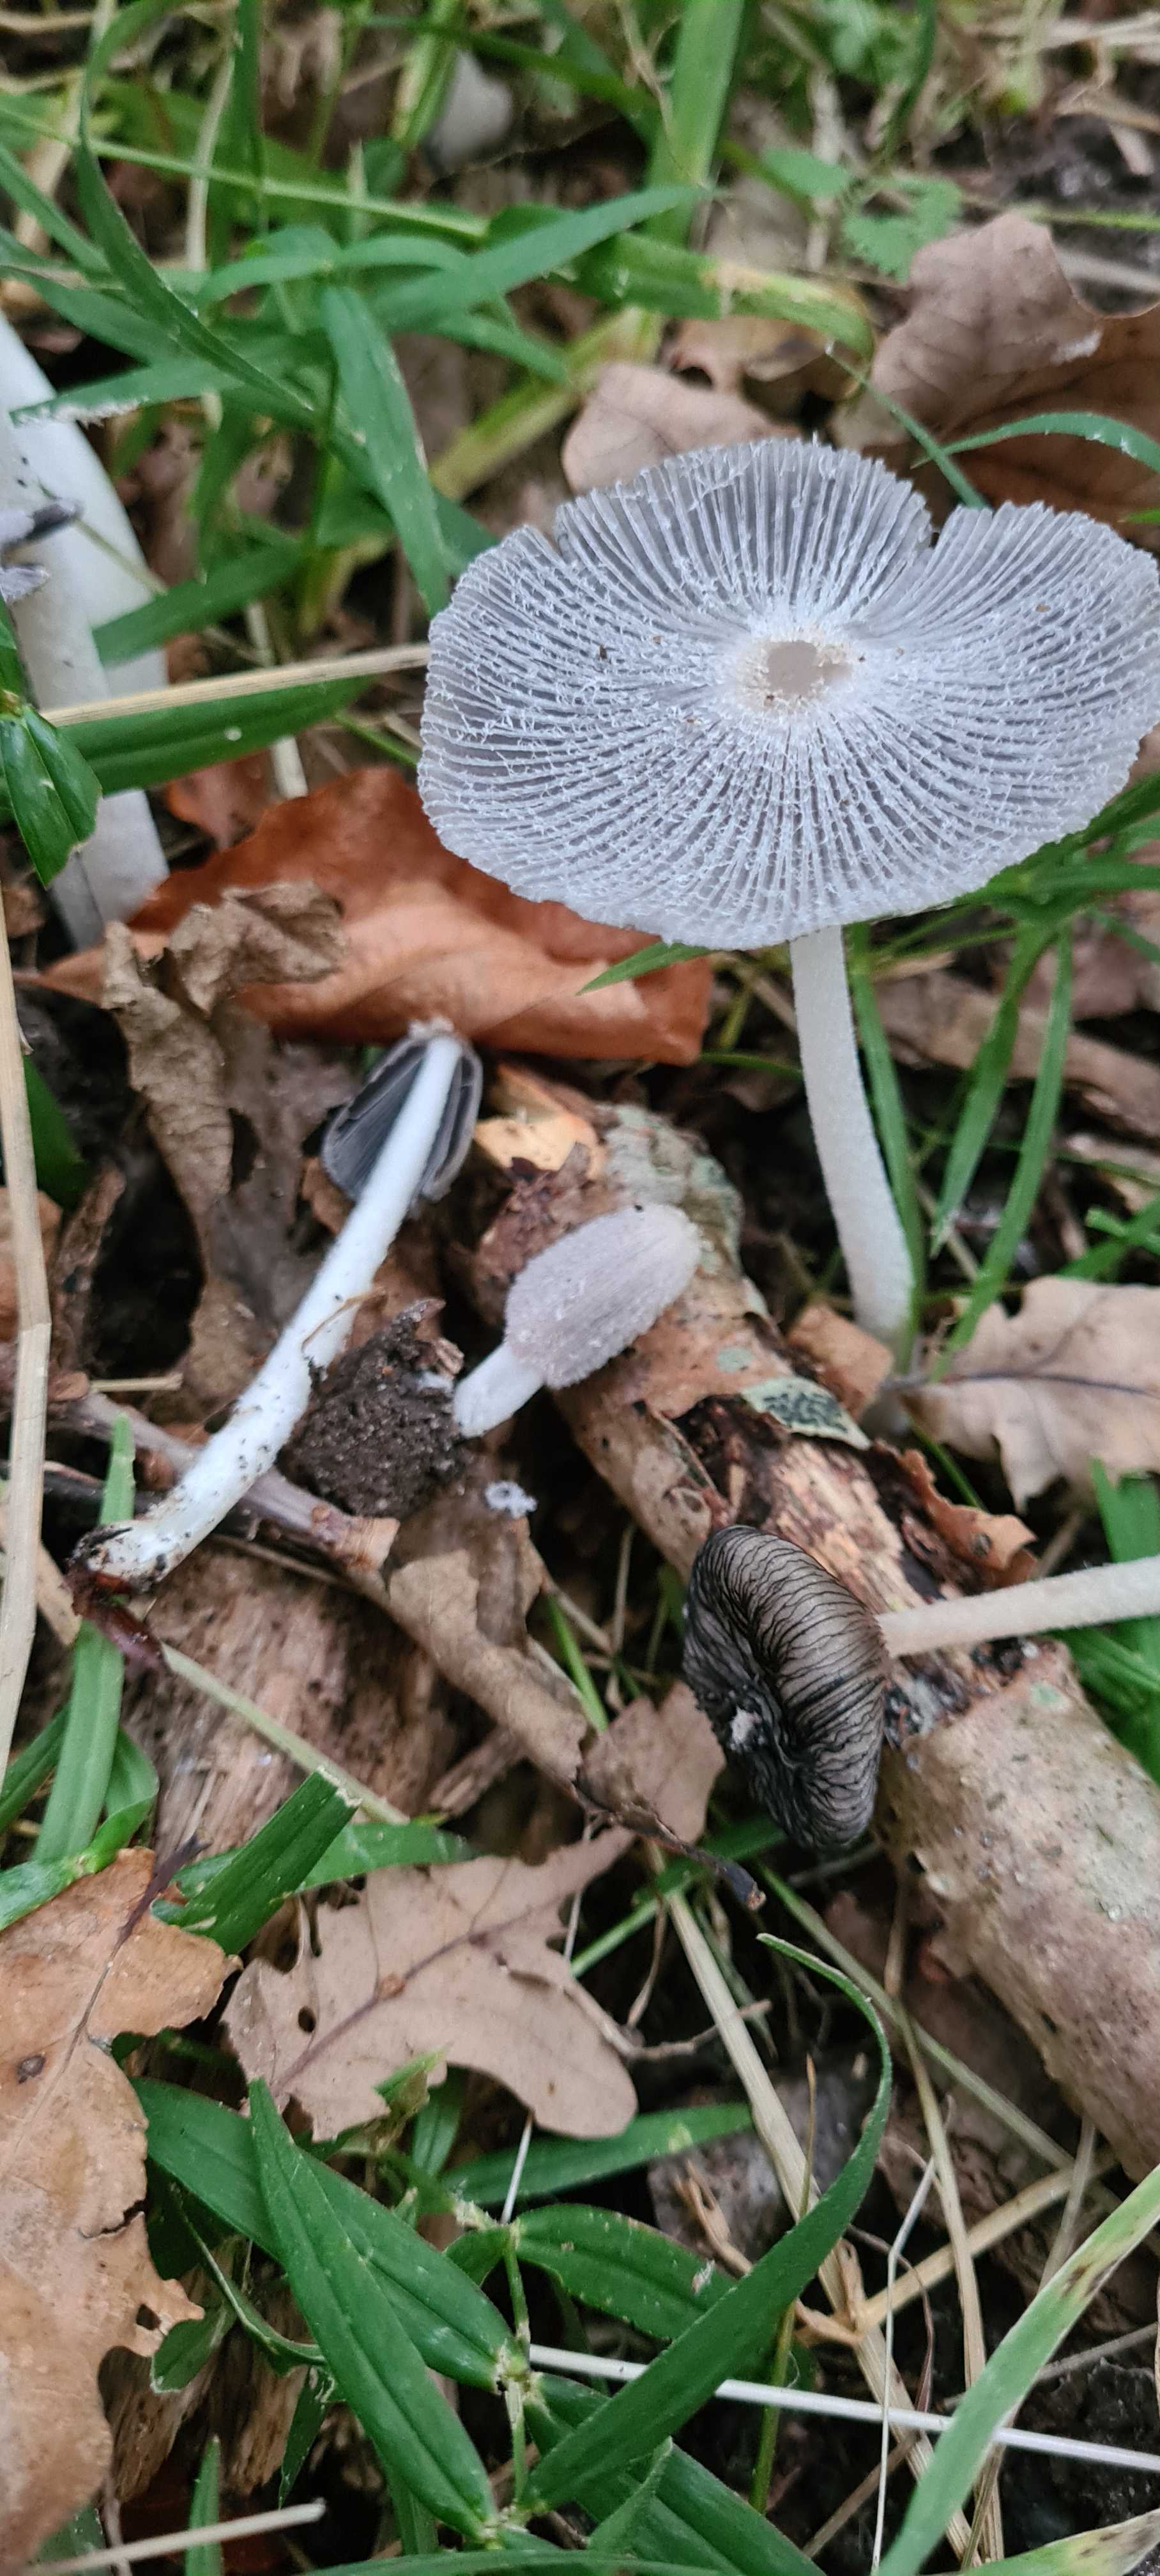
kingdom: Fungi
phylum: Basidiomycota
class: Agaricomycetes
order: Agaricales
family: Psathyrellaceae
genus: Coprinopsis
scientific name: Coprinopsis lagopus
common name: dunstokket blækhat
